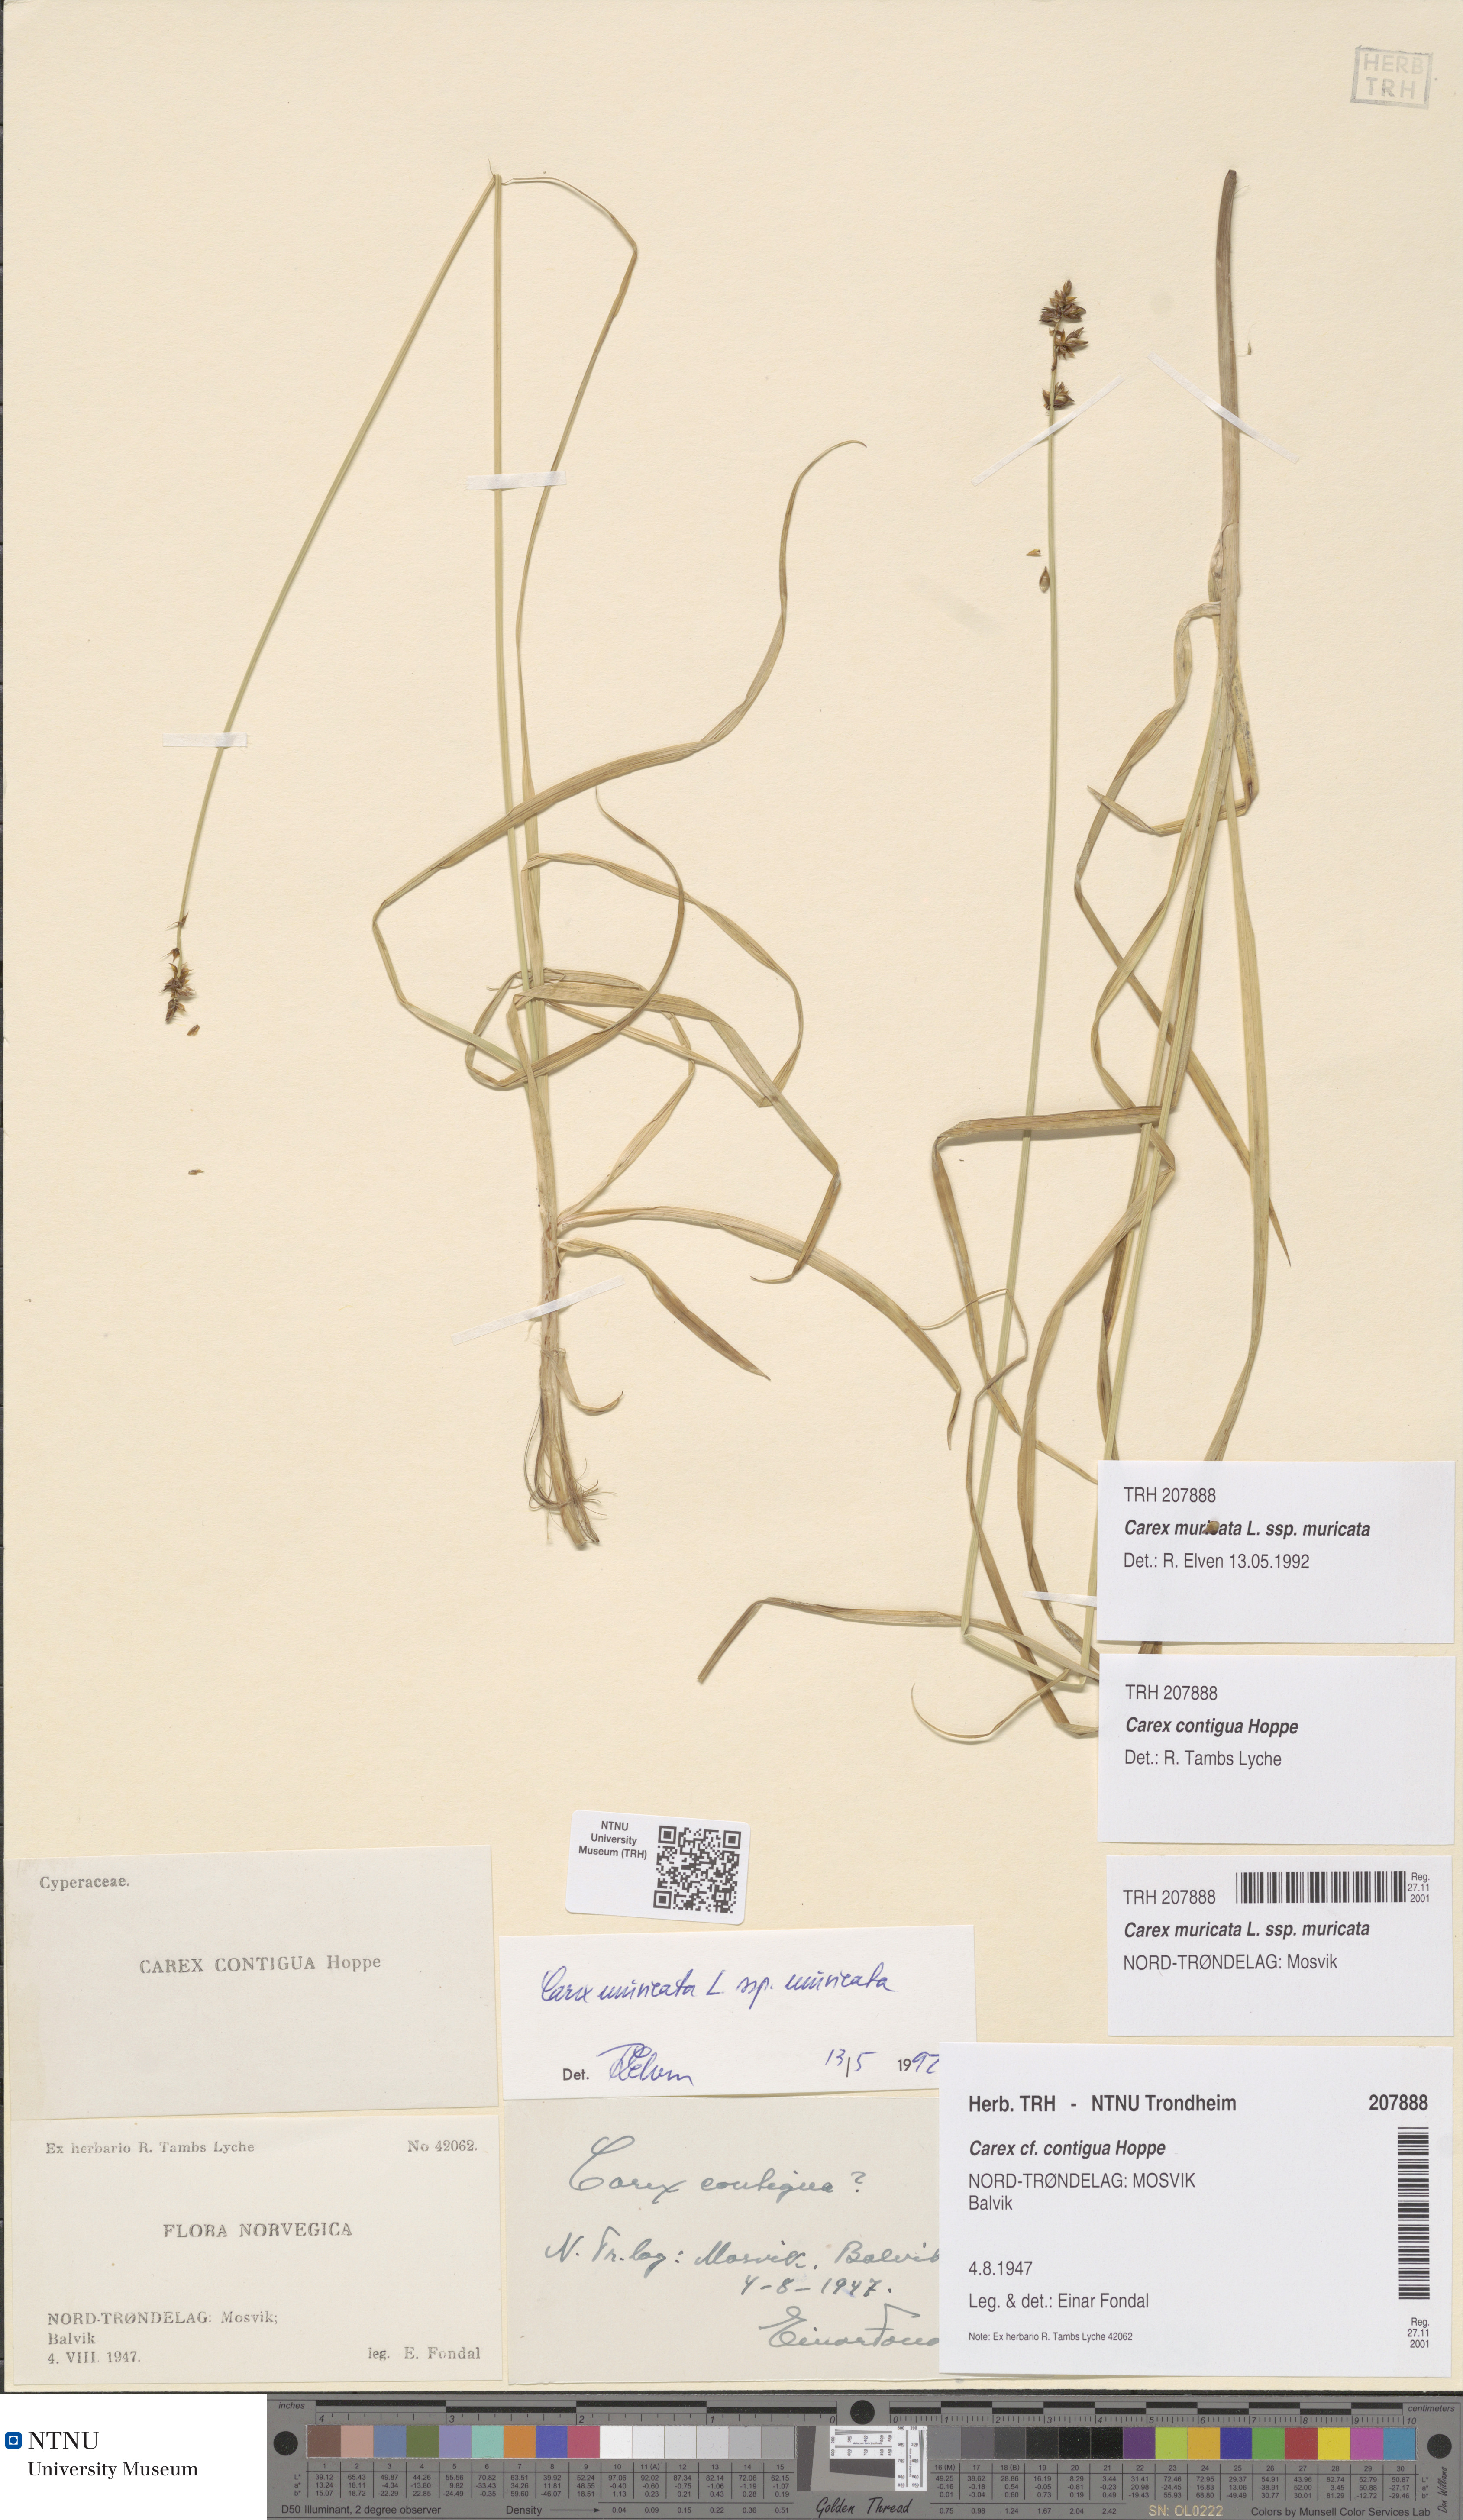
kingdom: Plantae
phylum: Tracheophyta
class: Liliopsida
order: Poales
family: Cyperaceae
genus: Carex
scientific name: Carex muricata
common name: Rough sedge
